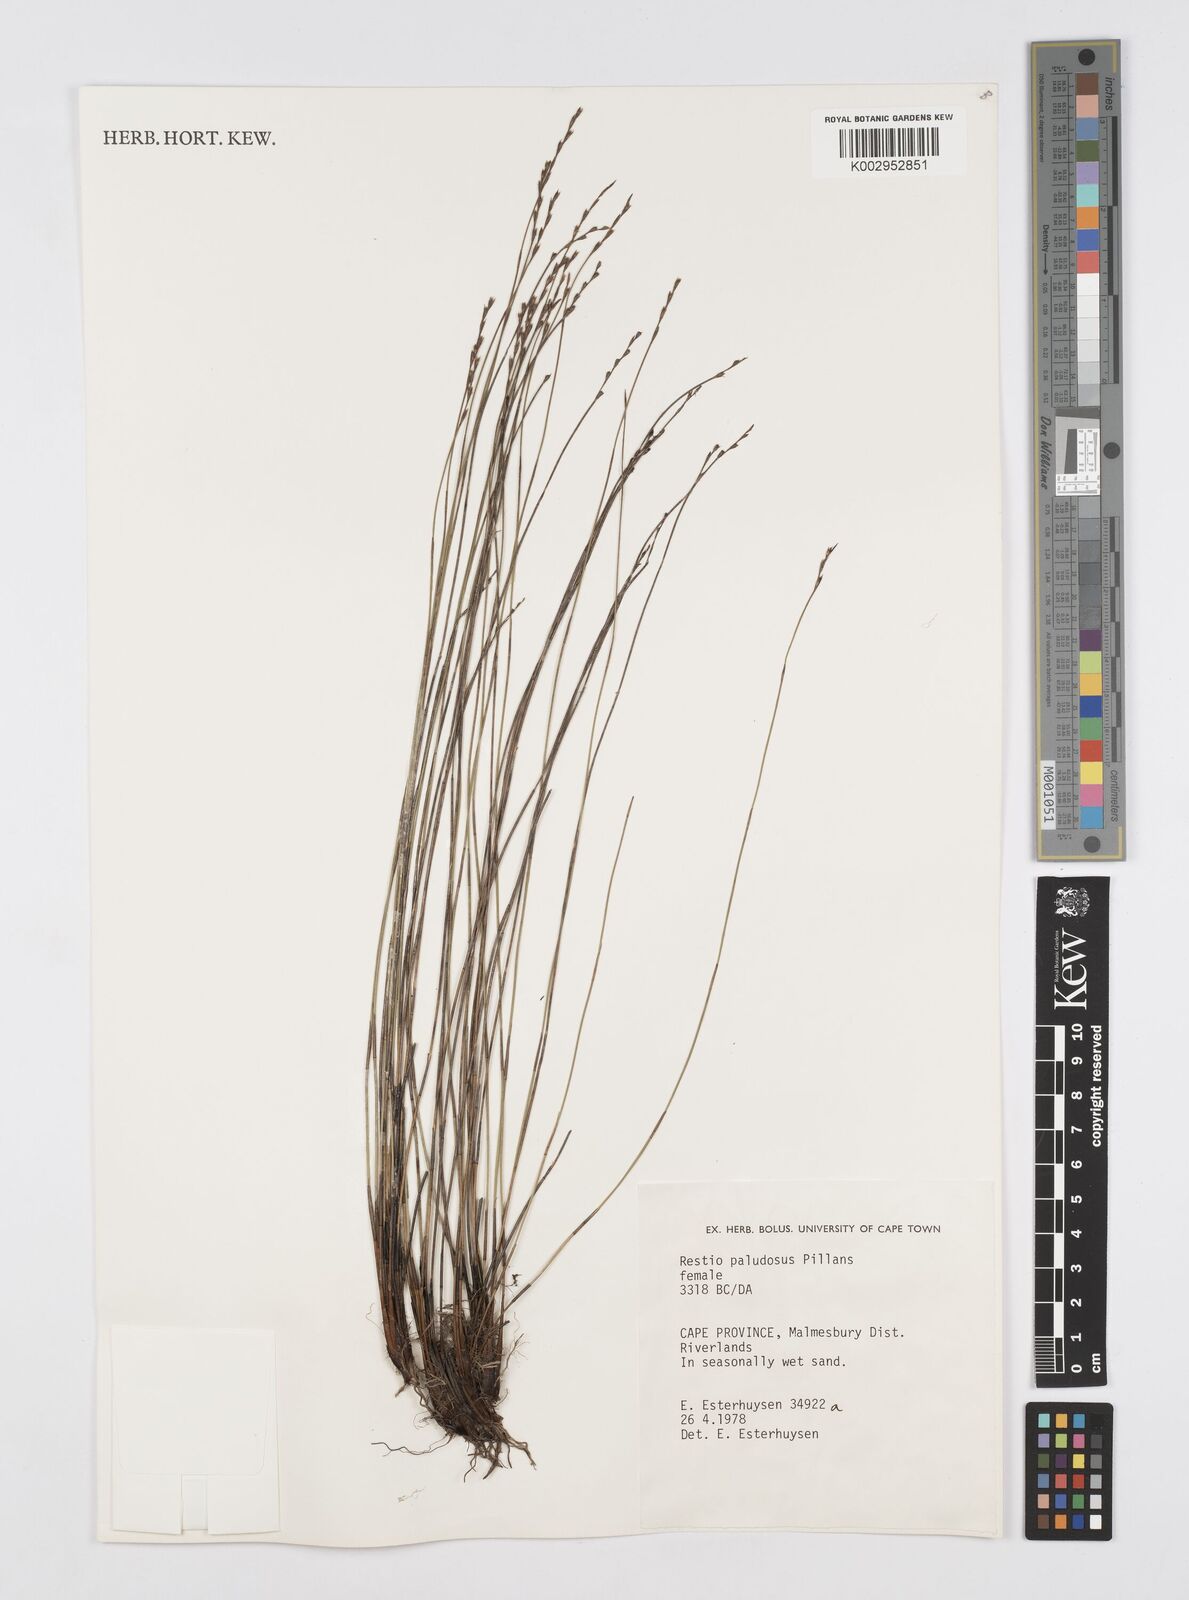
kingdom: Plantae
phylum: Tracheophyta
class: Liliopsida
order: Poales
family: Restionaceae
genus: Restio
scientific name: Restio paludosus
